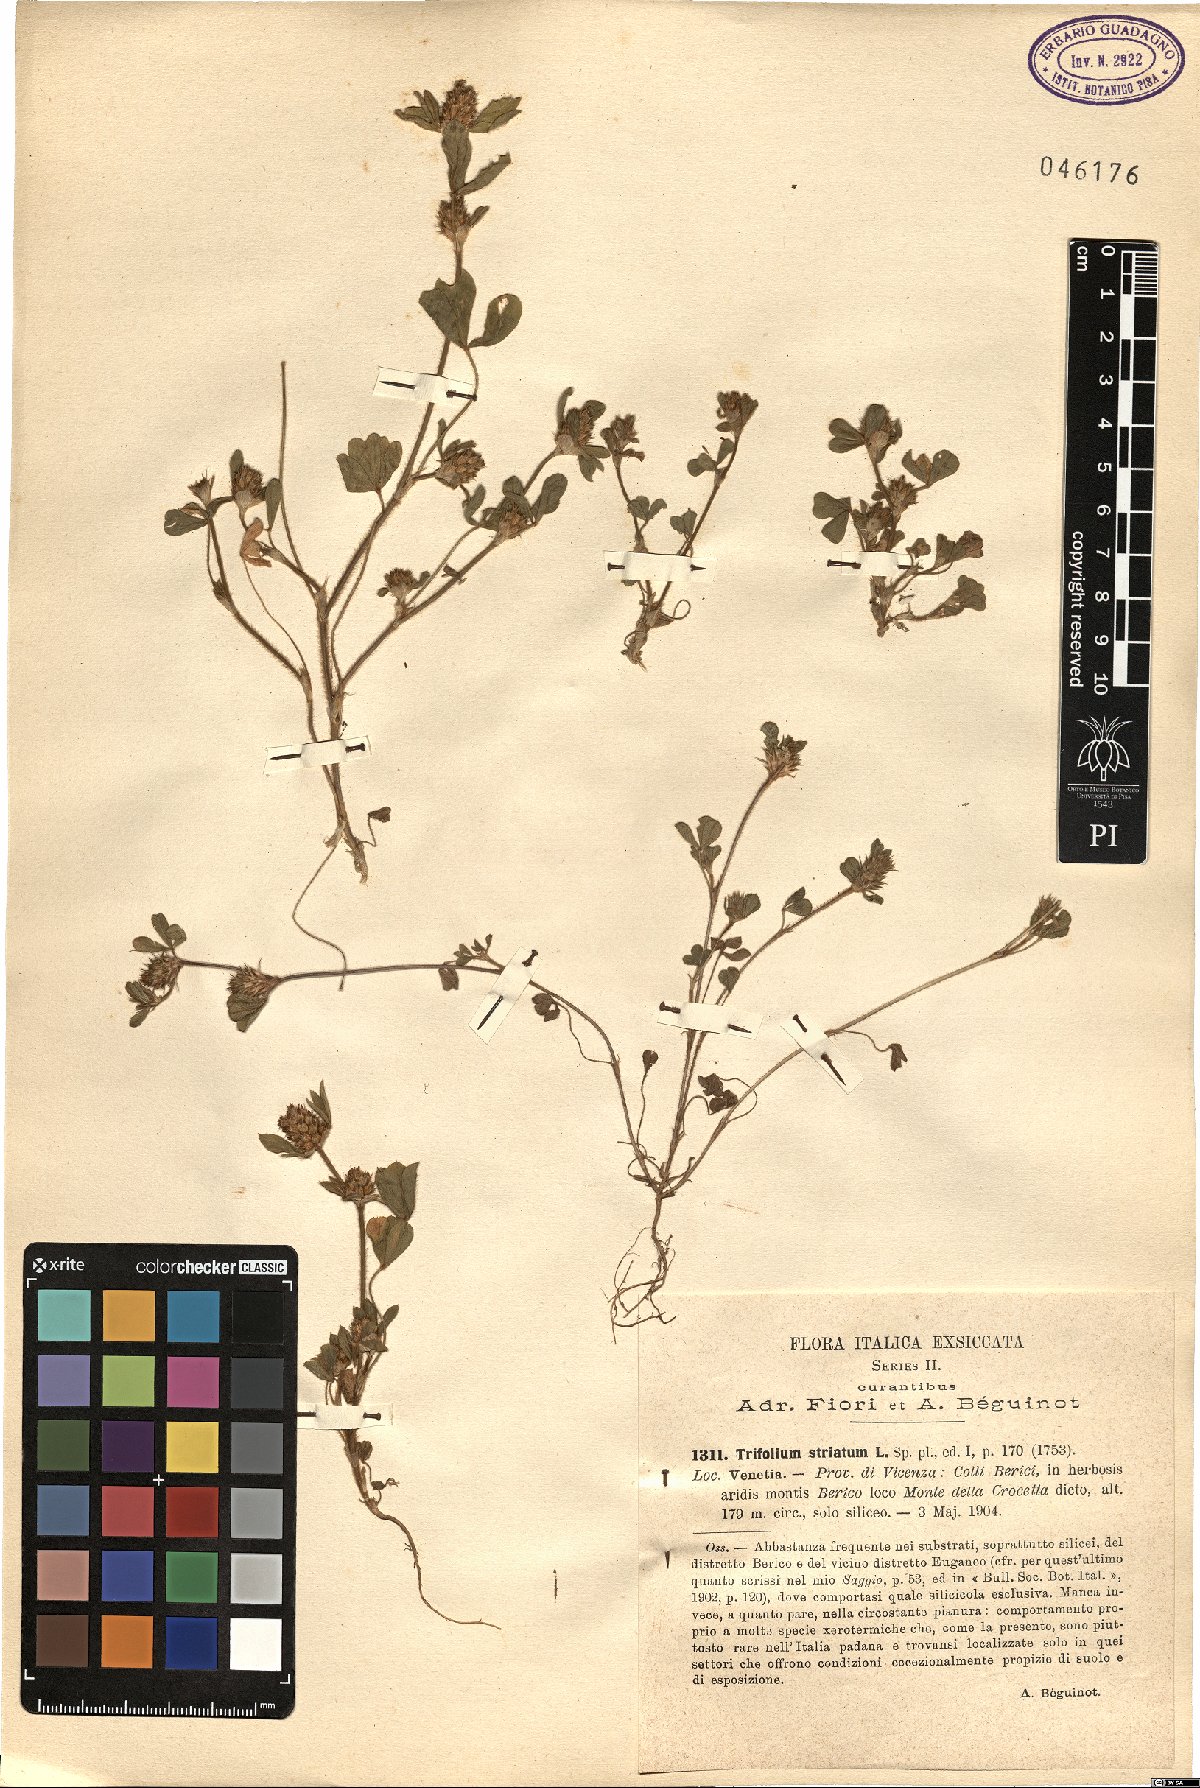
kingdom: Plantae
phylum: Tracheophyta
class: Magnoliopsida
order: Fabales
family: Fabaceae
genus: Trifolium
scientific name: Trifolium striatum
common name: Knotted clover
